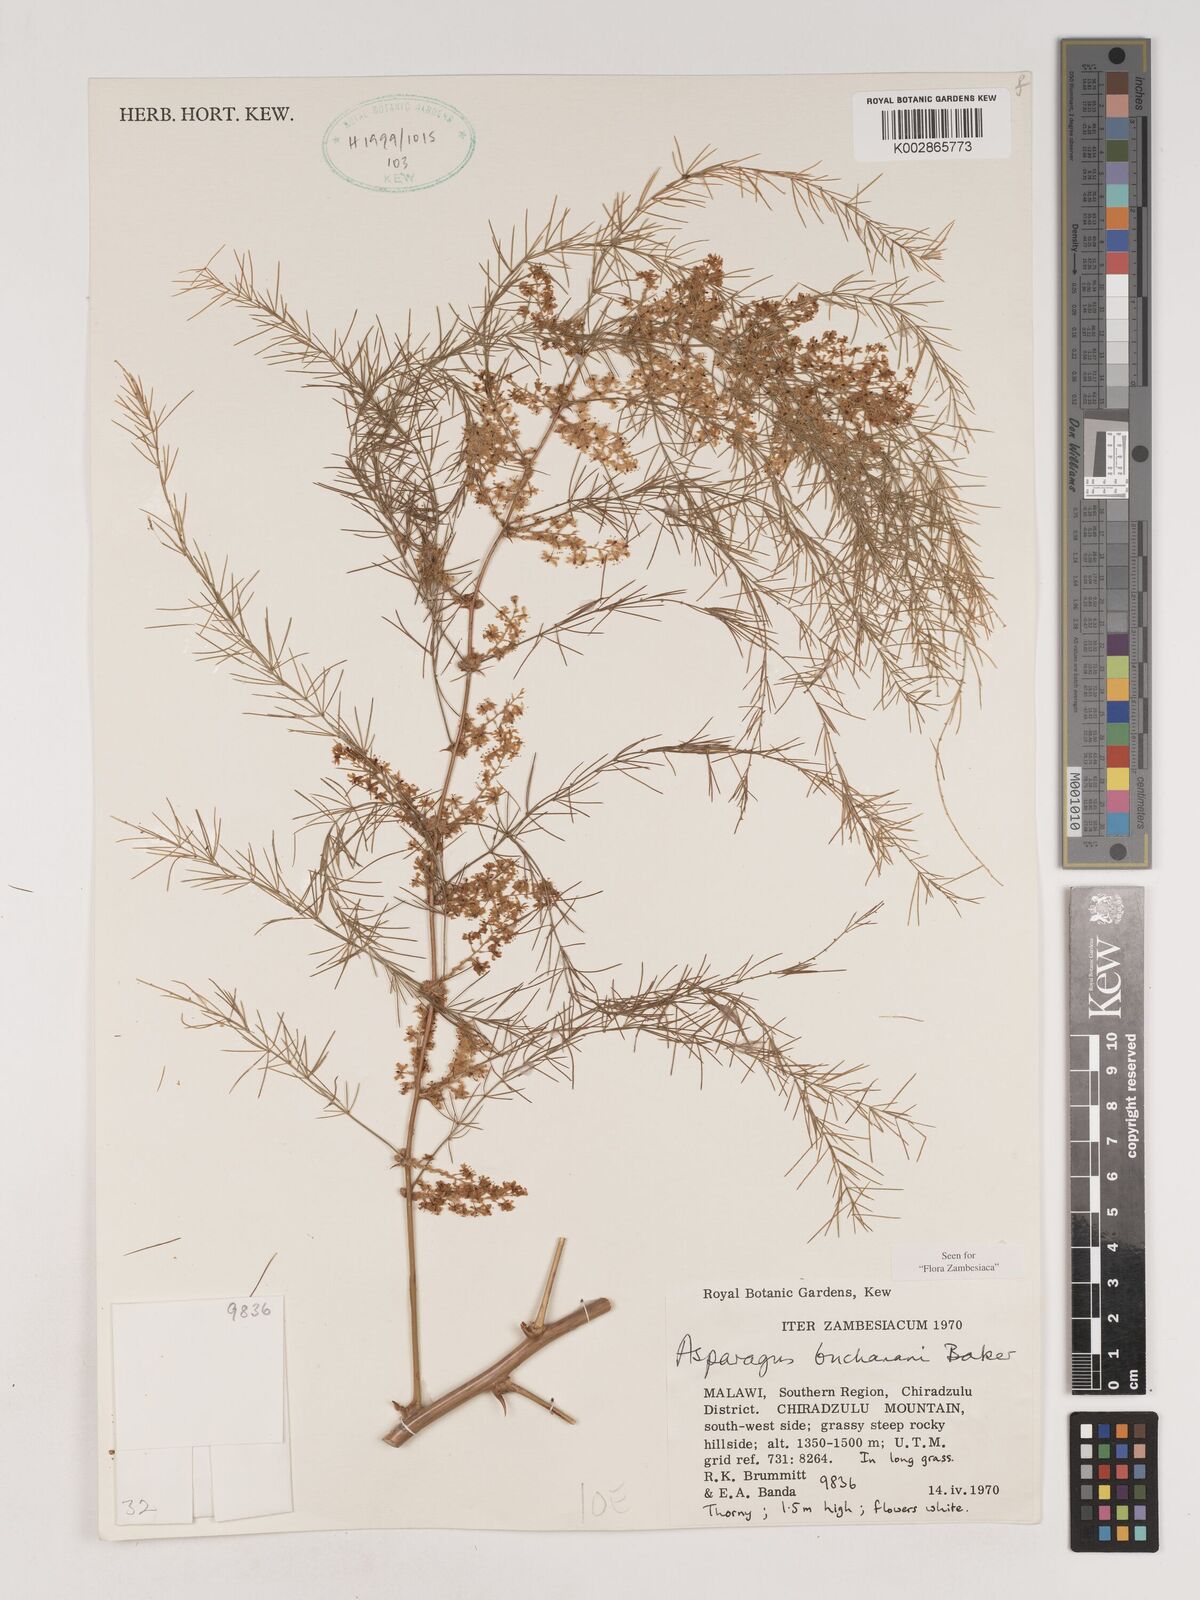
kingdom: Plantae
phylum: Tracheophyta
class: Liliopsida
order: Asparagales
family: Asparagaceae
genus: Asparagus
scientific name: Asparagus buchananii
